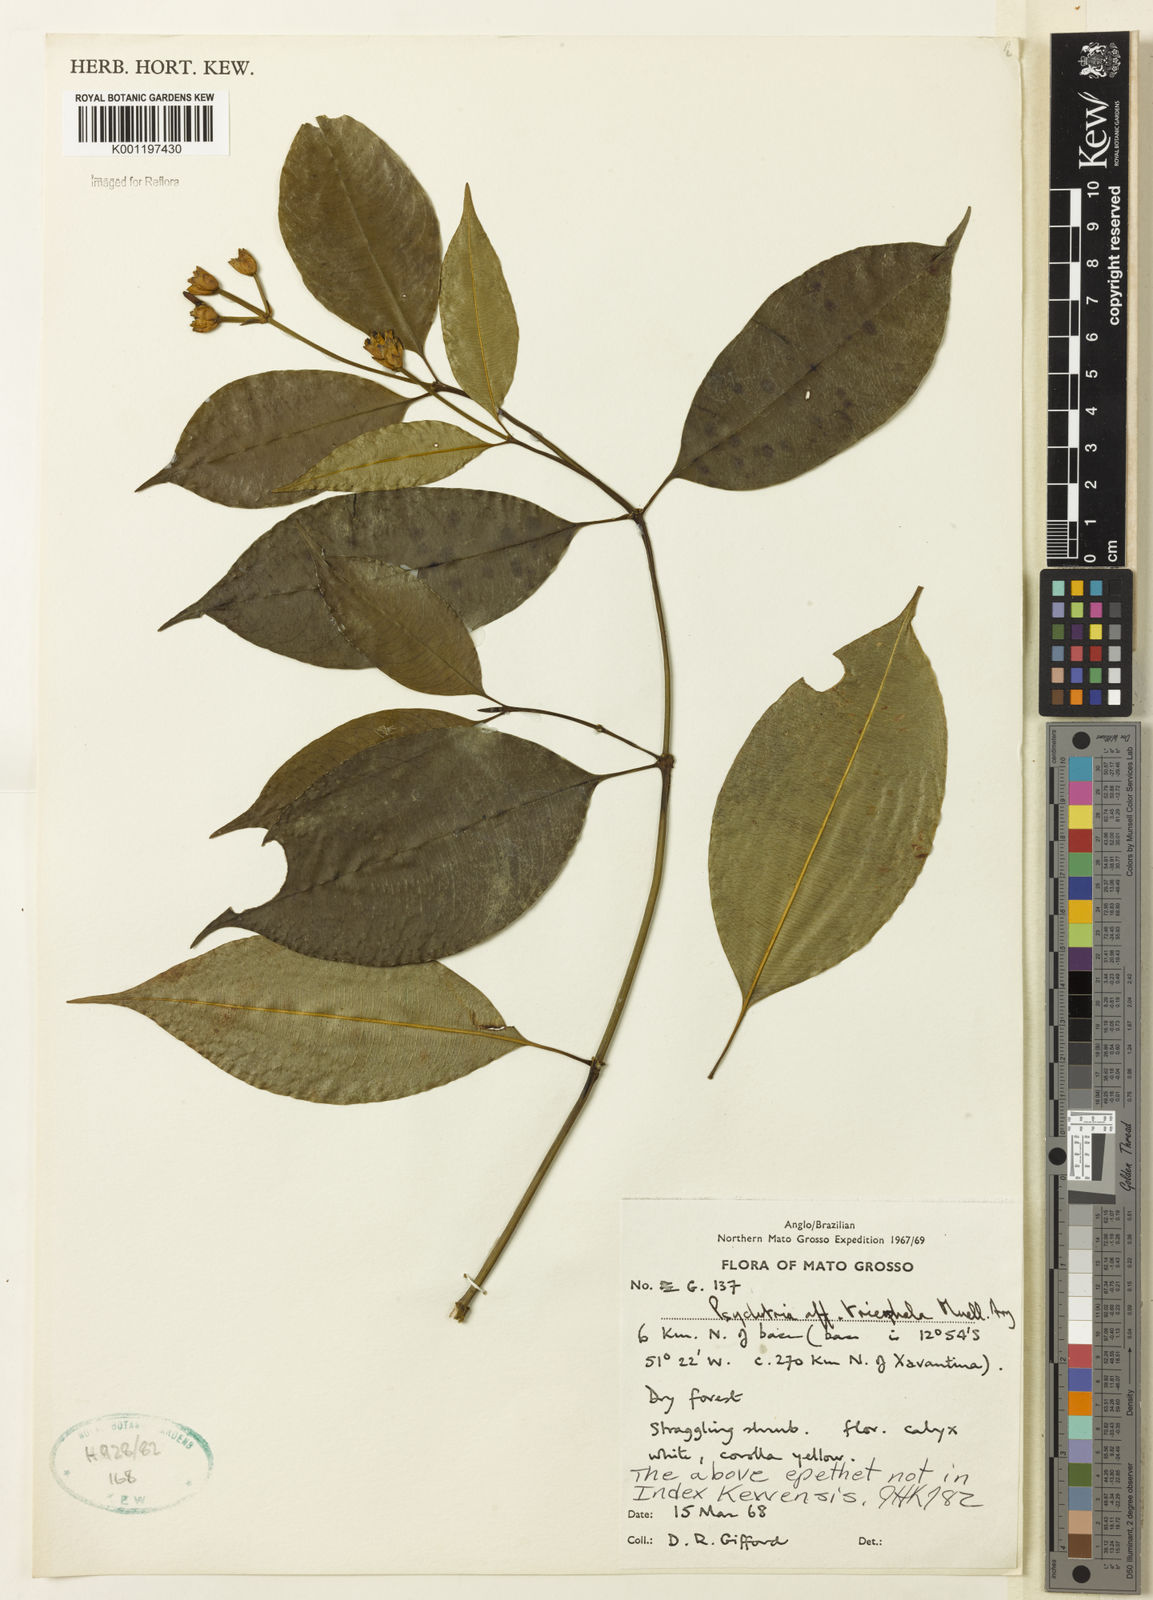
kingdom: Plantae
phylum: Tracheophyta
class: Magnoliopsida
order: Gentianales
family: Rubiaceae
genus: Psychotria
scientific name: Psychotria
